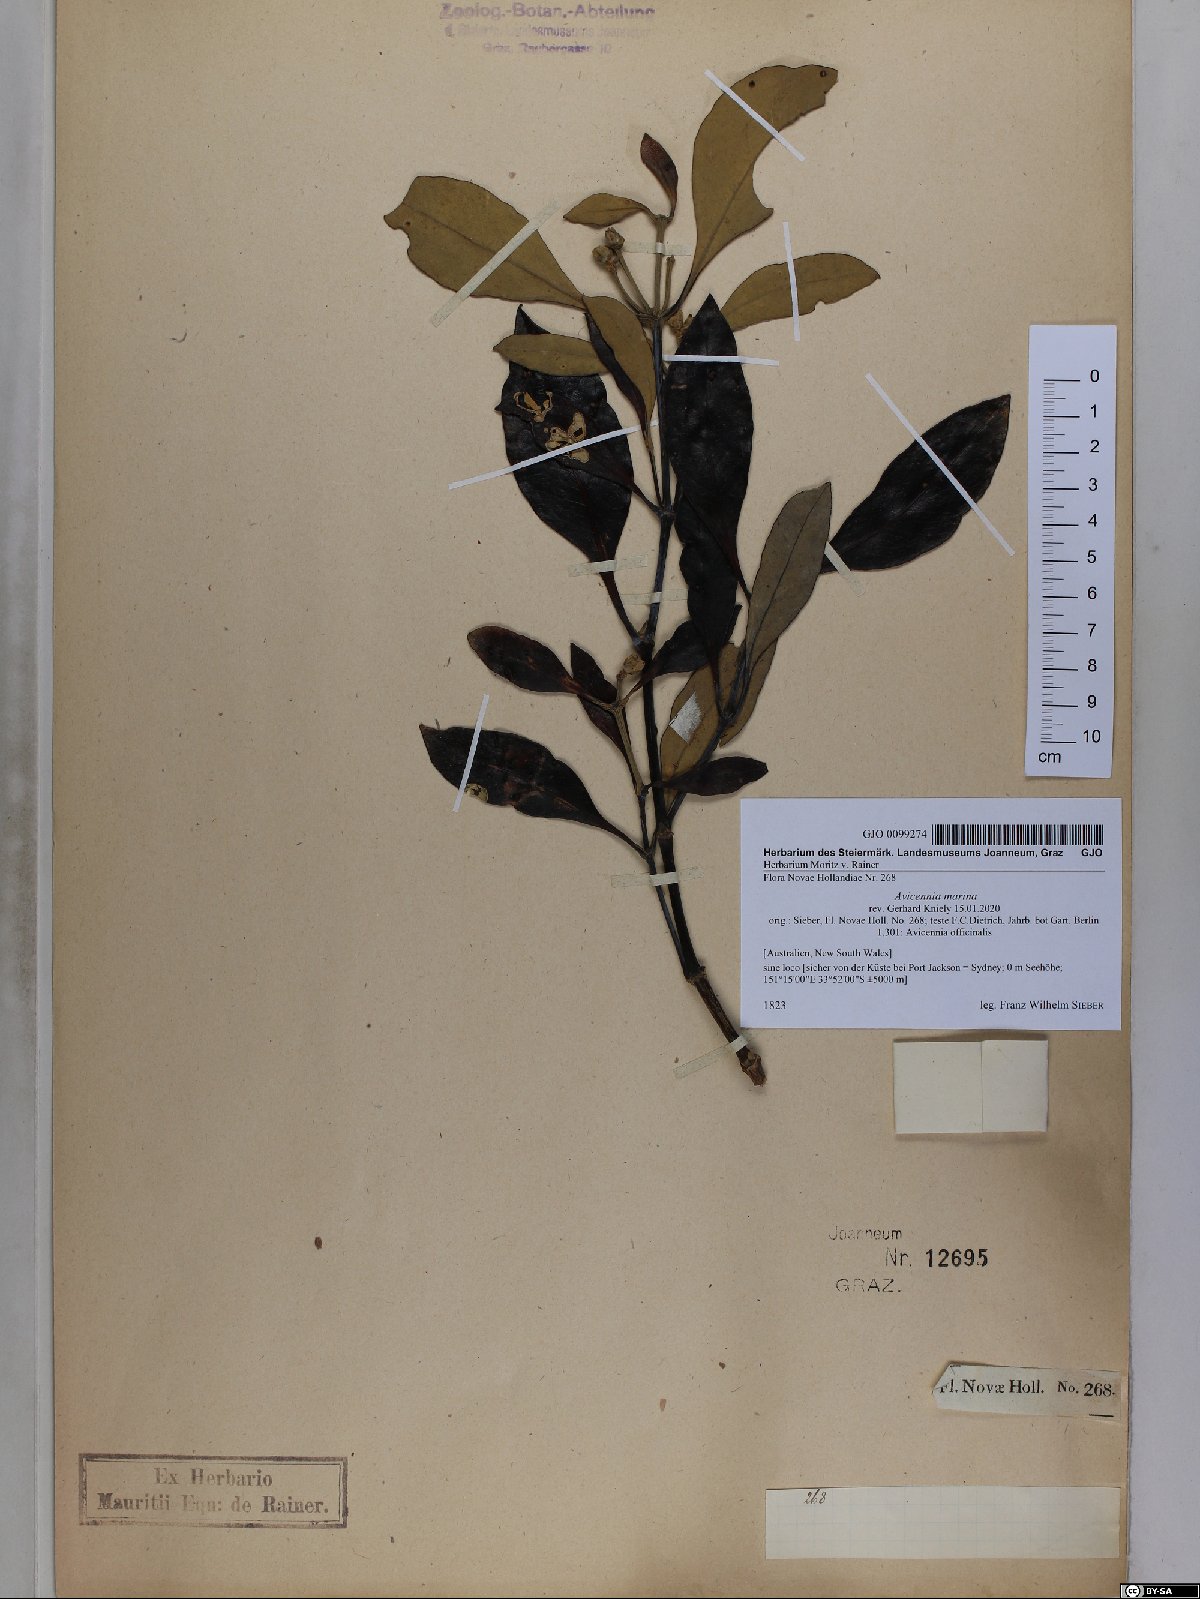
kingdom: Plantae
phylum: Tracheophyta
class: Magnoliopsida
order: Lamiales
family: Acanthaceae
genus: Avicennia
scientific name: Avicennia marina
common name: Gray mangrove
